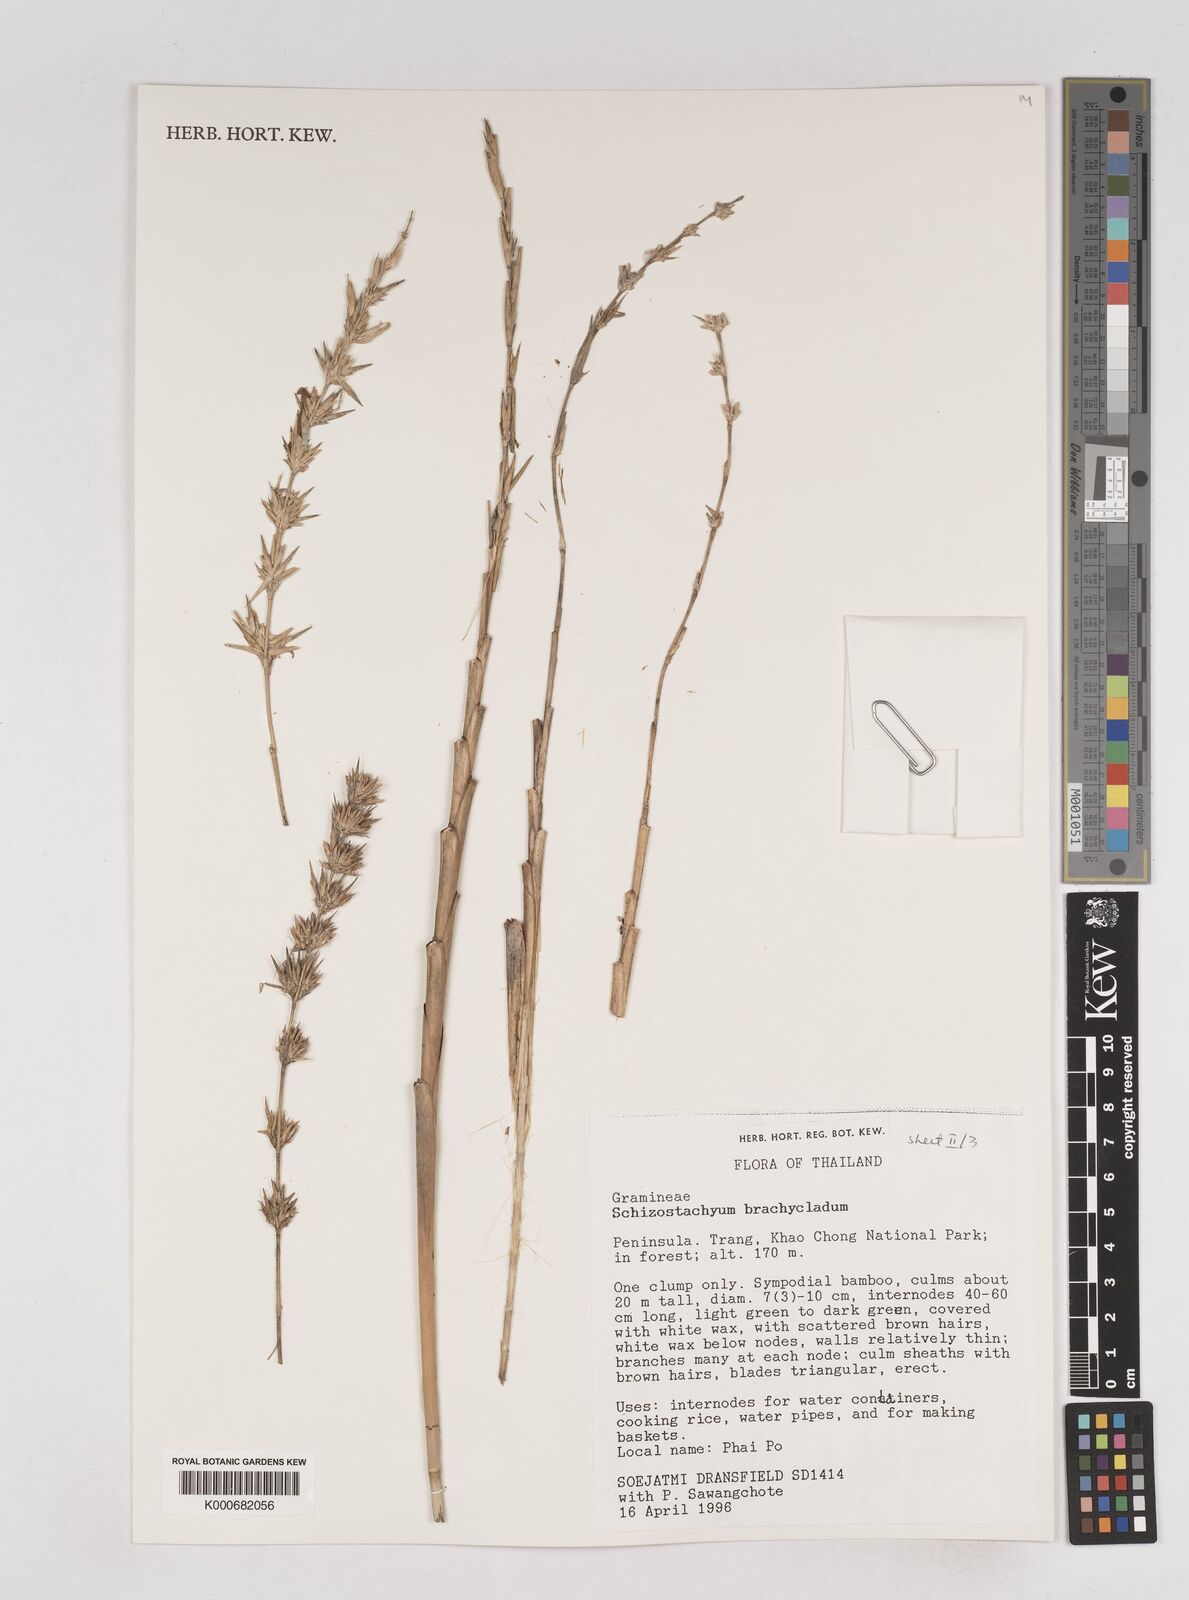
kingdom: Plantae
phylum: Tracheophyta
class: Liliopsida
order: Poales
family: Poaceae
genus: Schizostachyum
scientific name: Schizostachyum brachycladum
